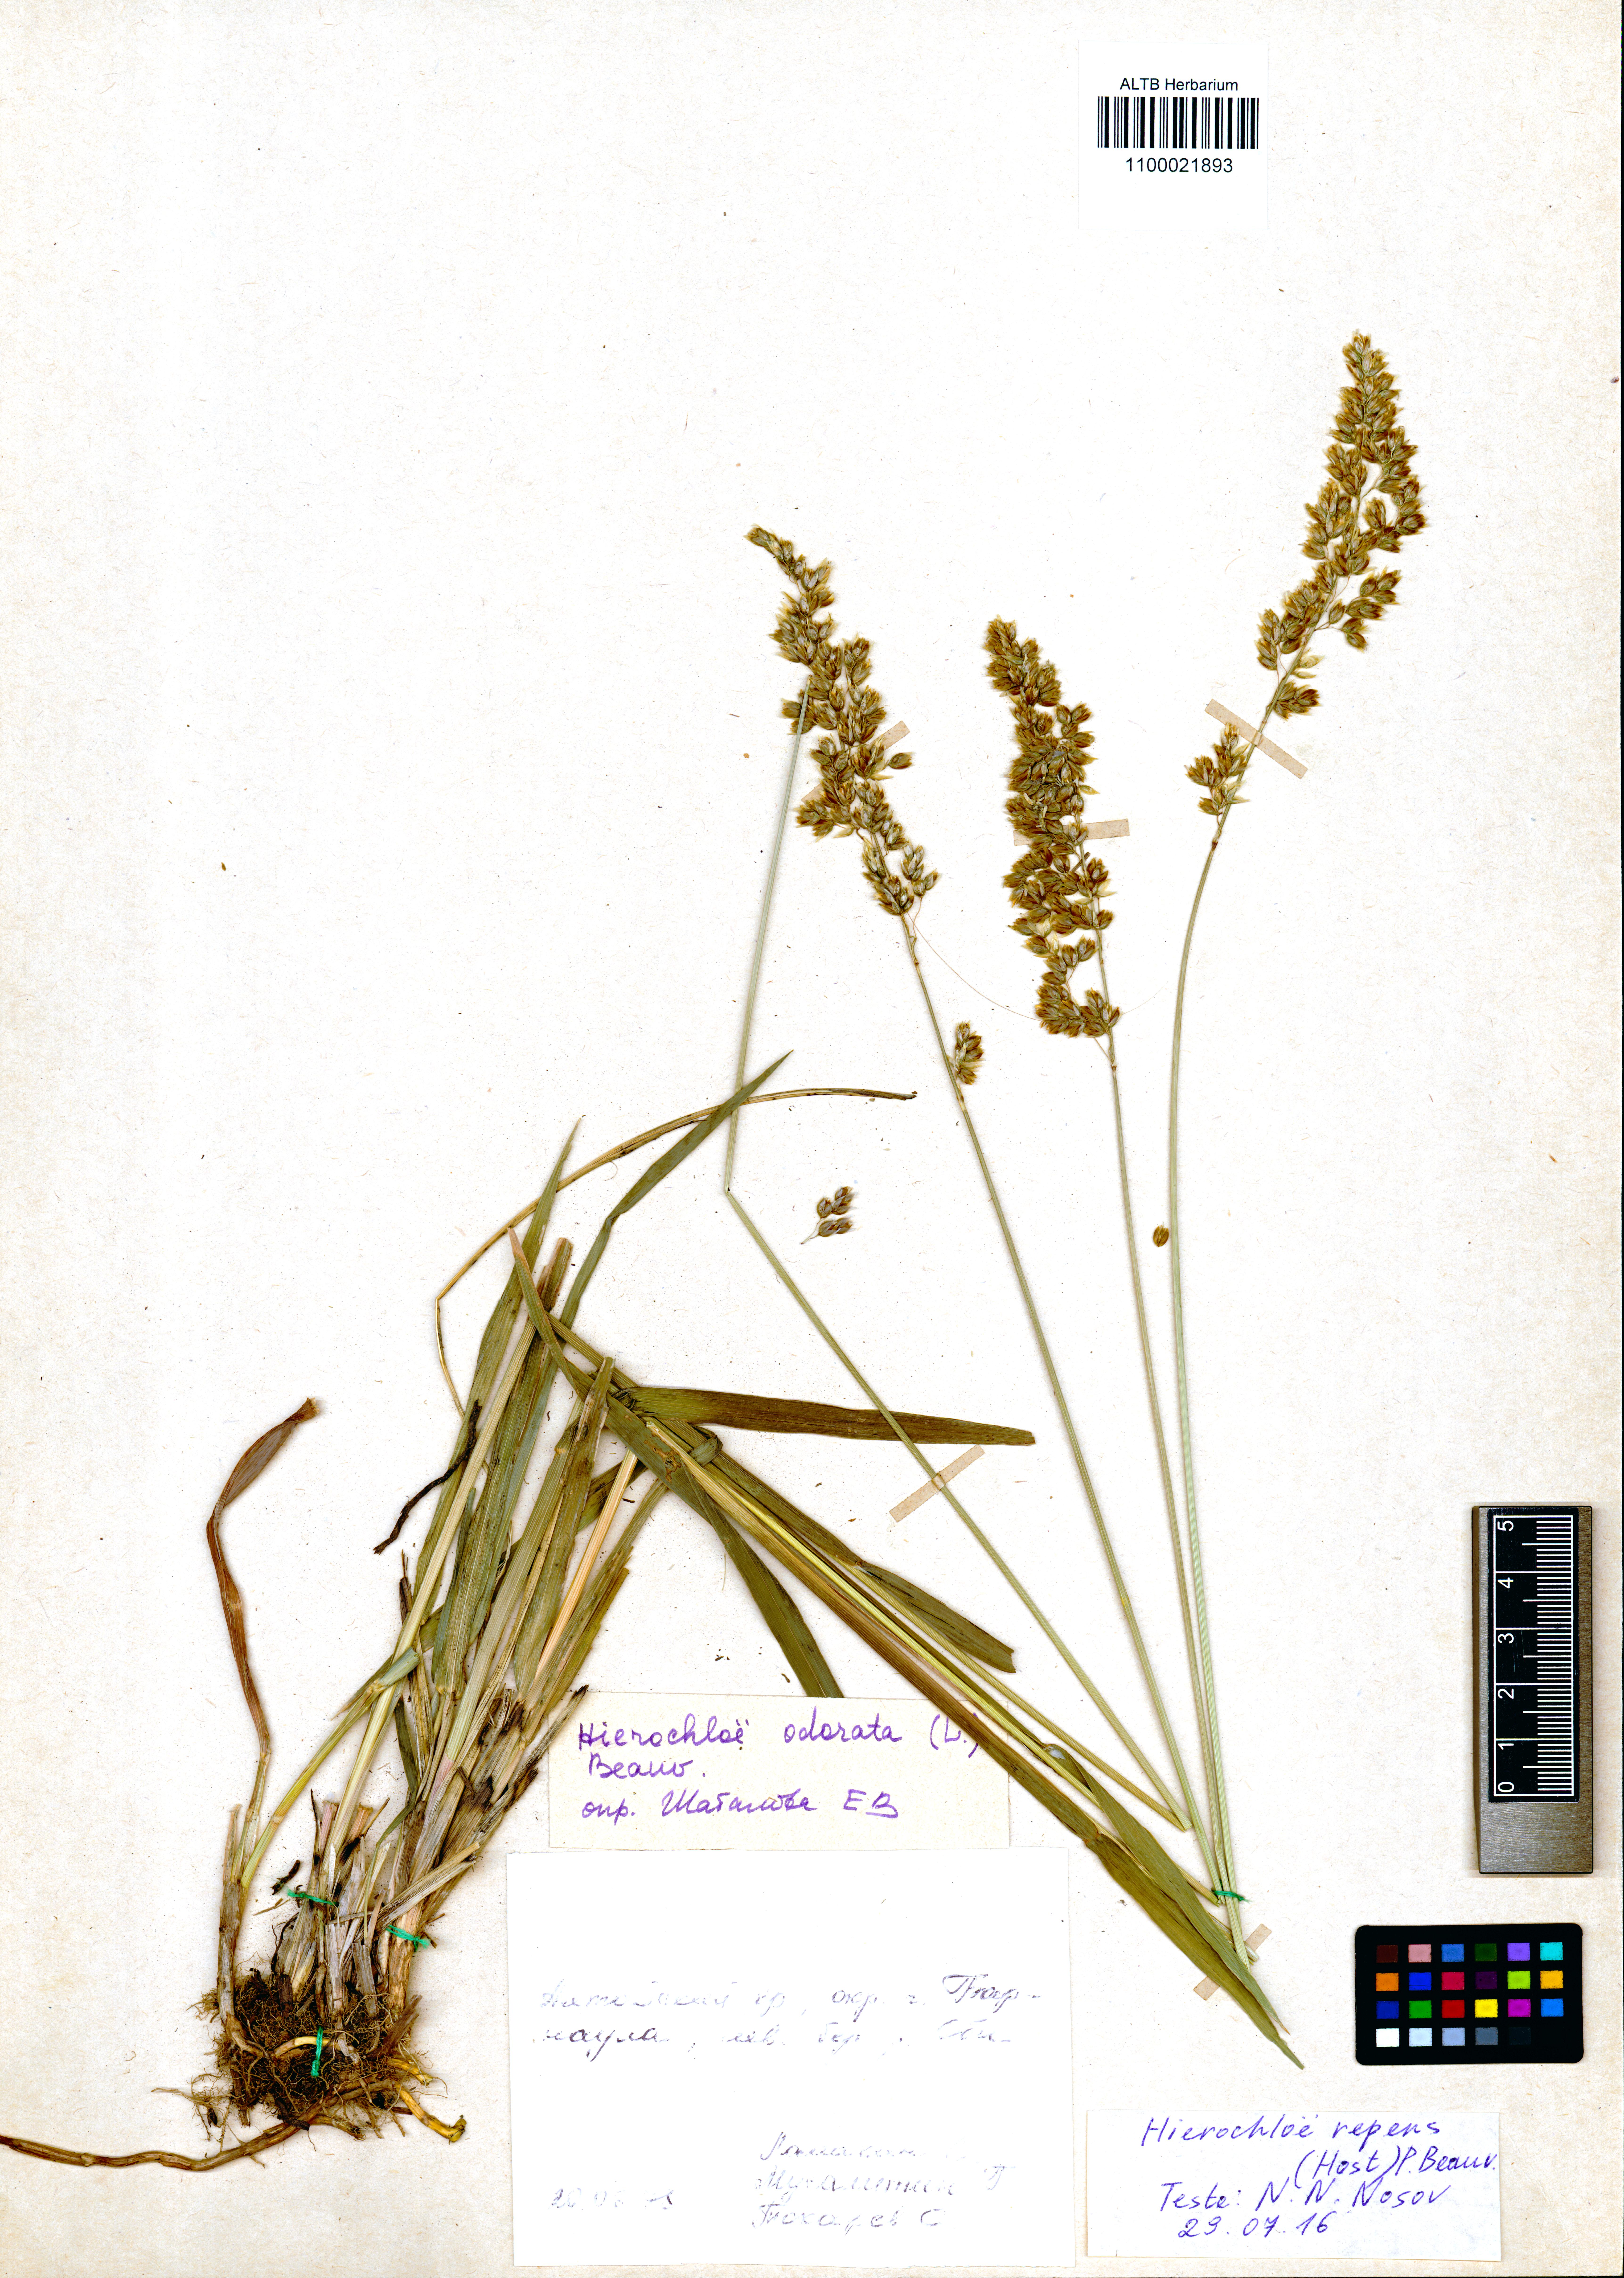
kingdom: Plantae
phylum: Tracheophyta
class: Liliopsida
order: Poales
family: Poaceae
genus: Anthoxanthum
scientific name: Anthoxanthum repens
